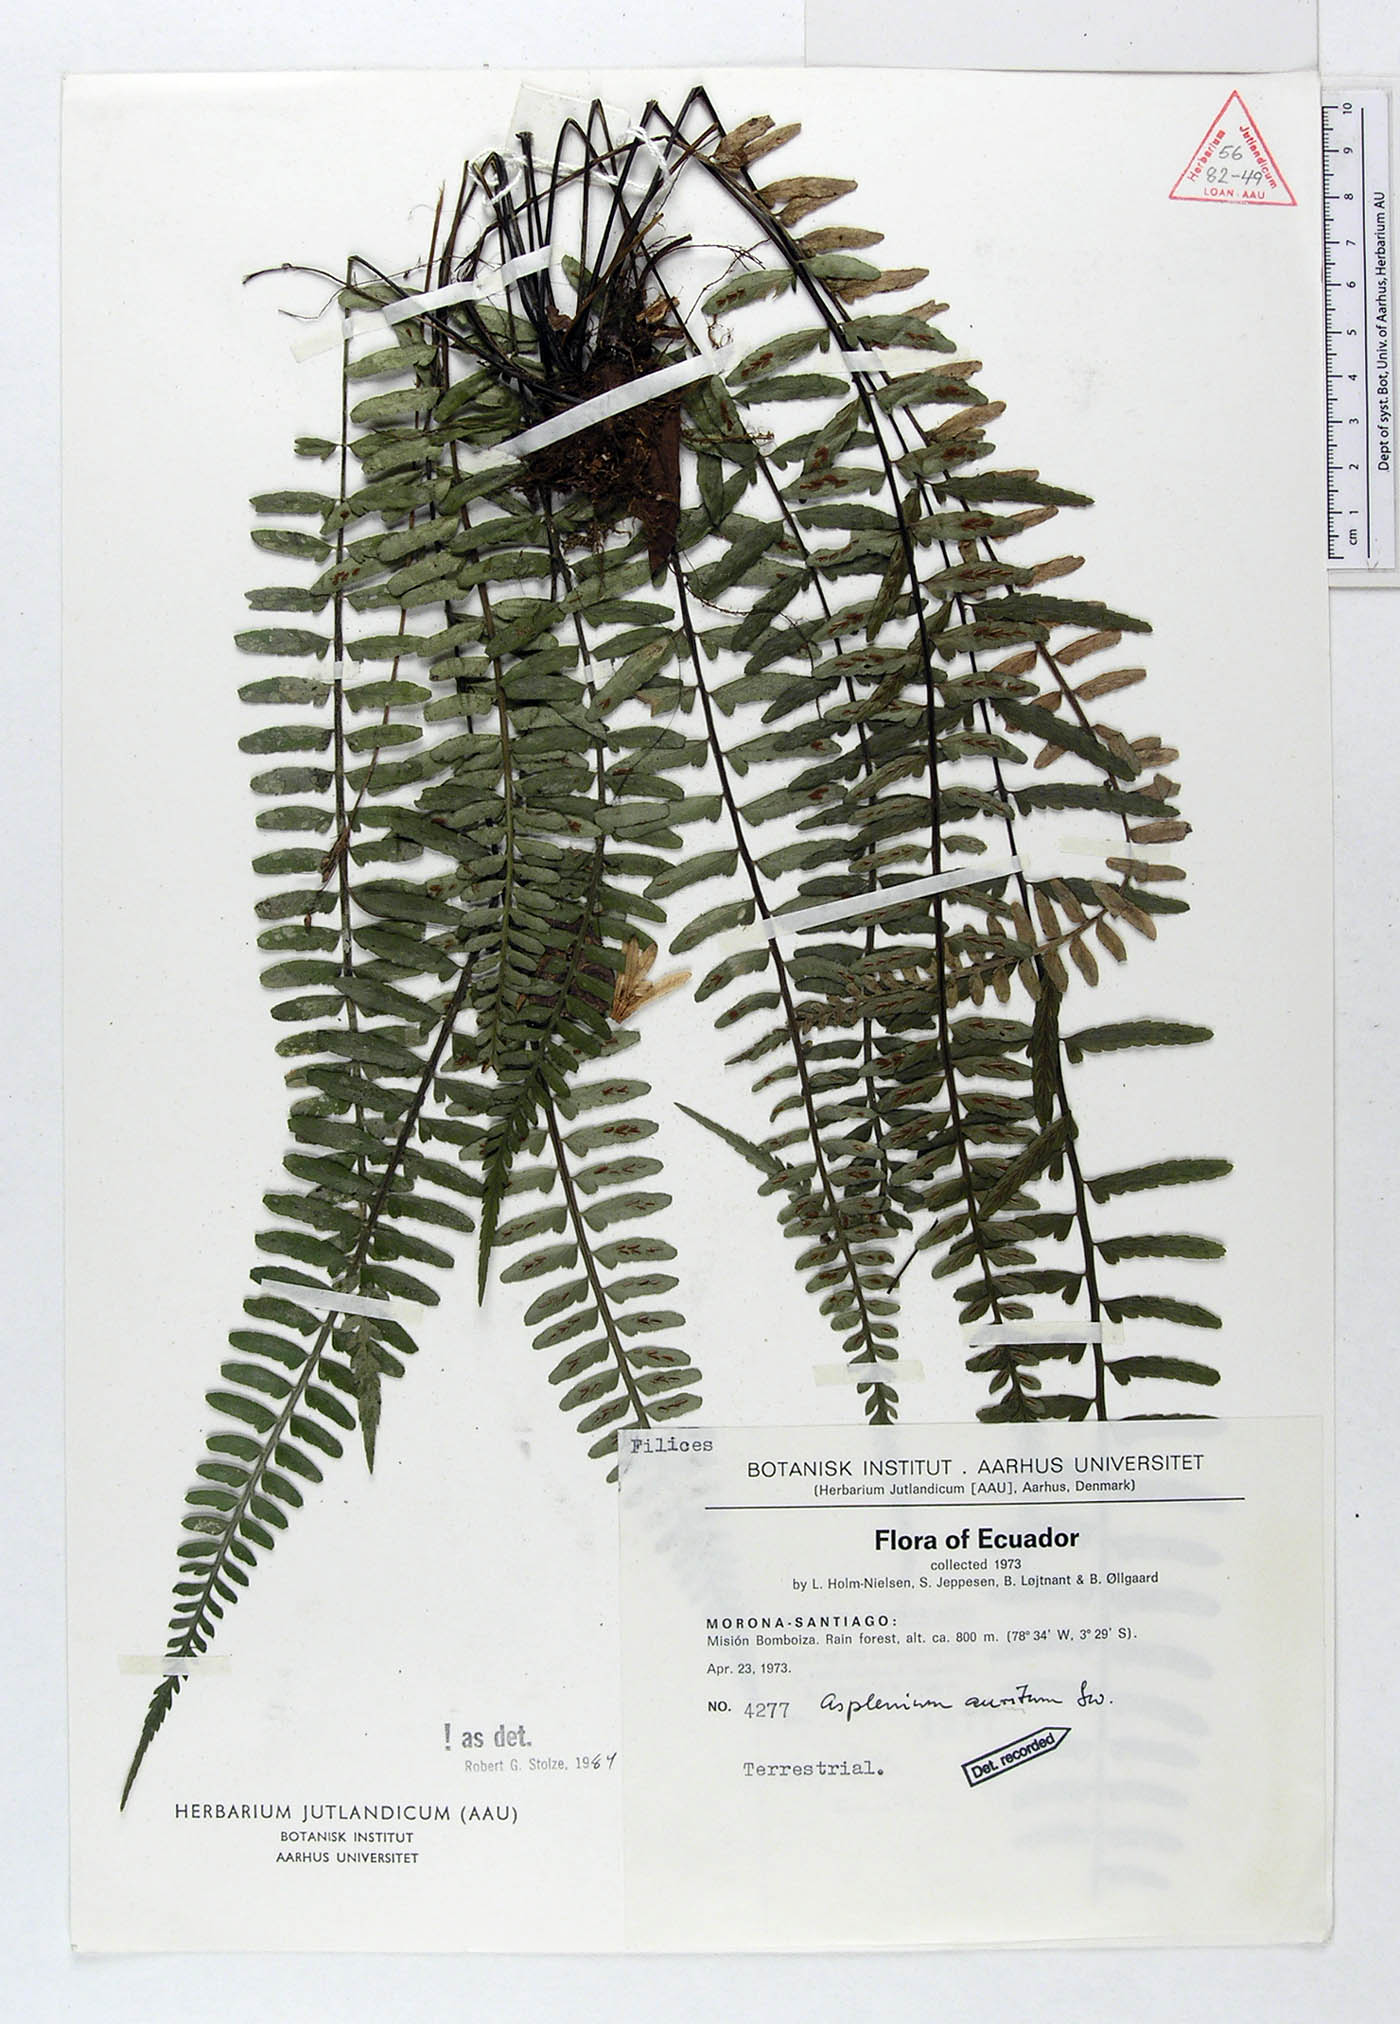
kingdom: Plantae
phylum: Tracheophyta
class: Polypodiopsida
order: Polypodiales
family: Aspleniaceae
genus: Asplenium
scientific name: Asplenium auritum
